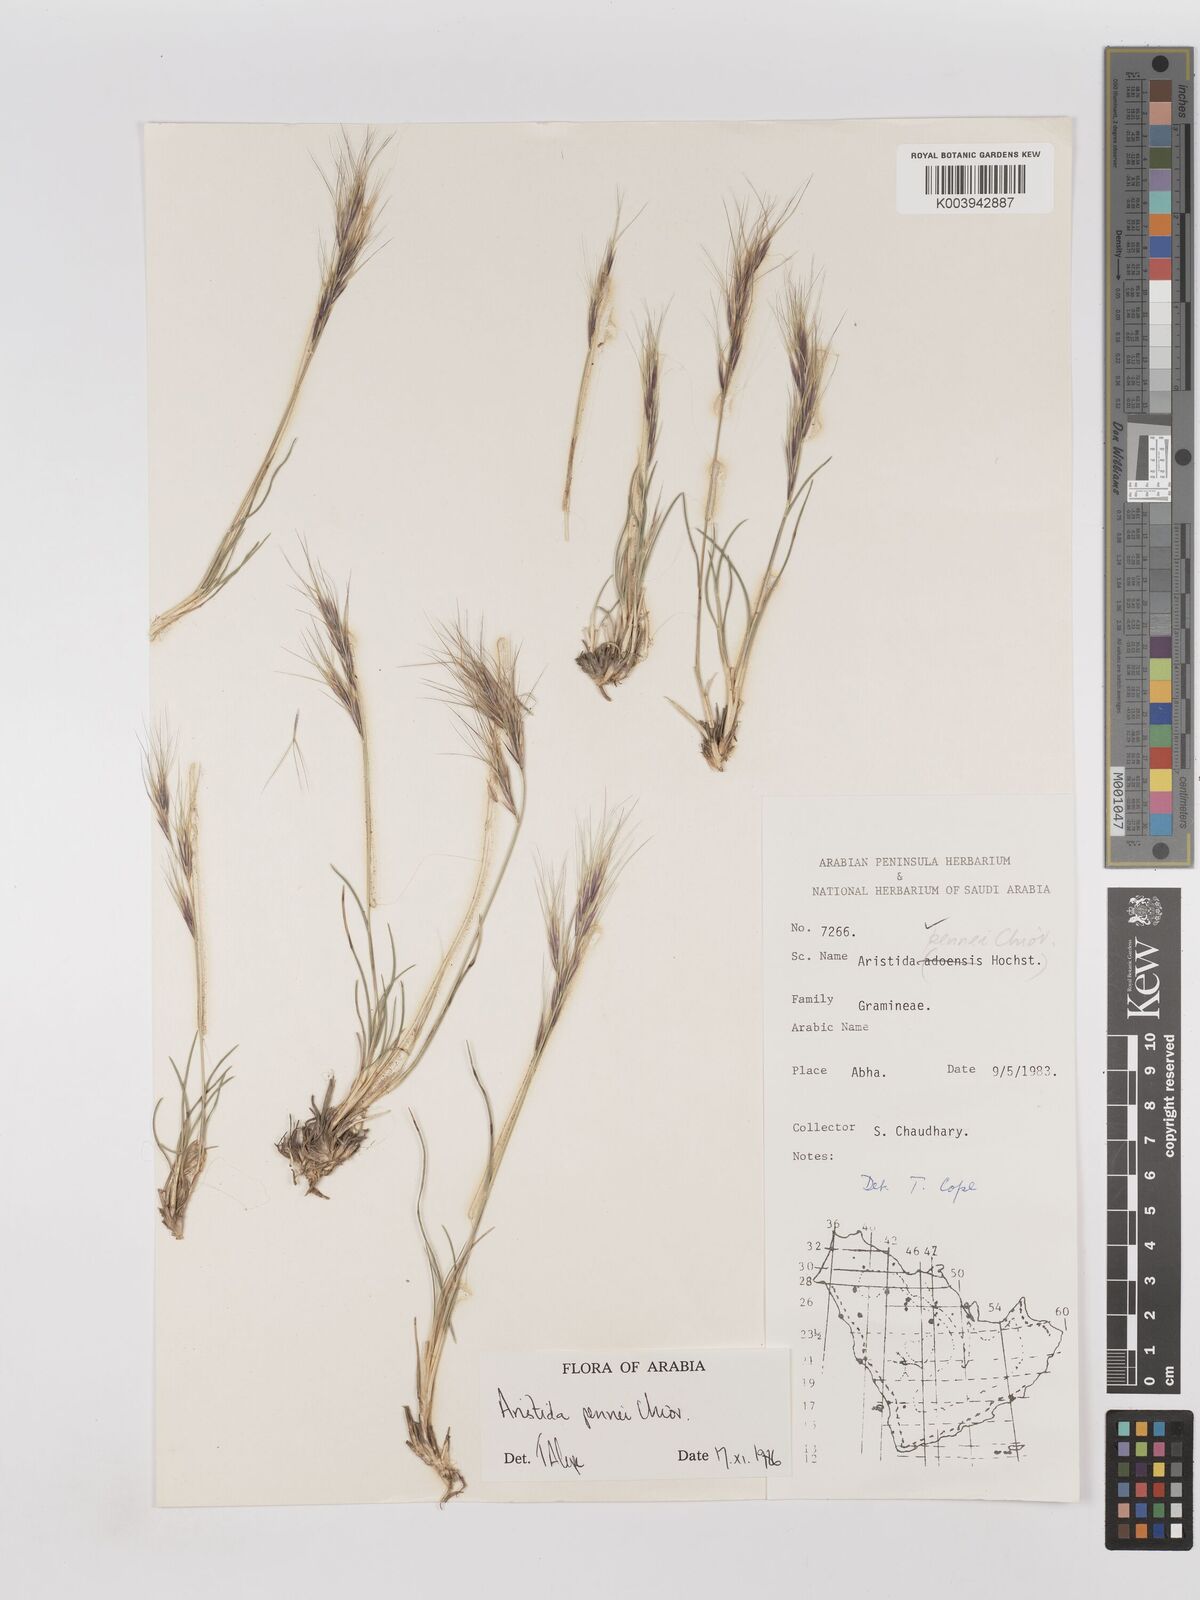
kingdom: Plantae
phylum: Tracheophyta
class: Liliopsida
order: Poales
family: Poaceae
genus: Aristida
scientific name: Aristida pennei
